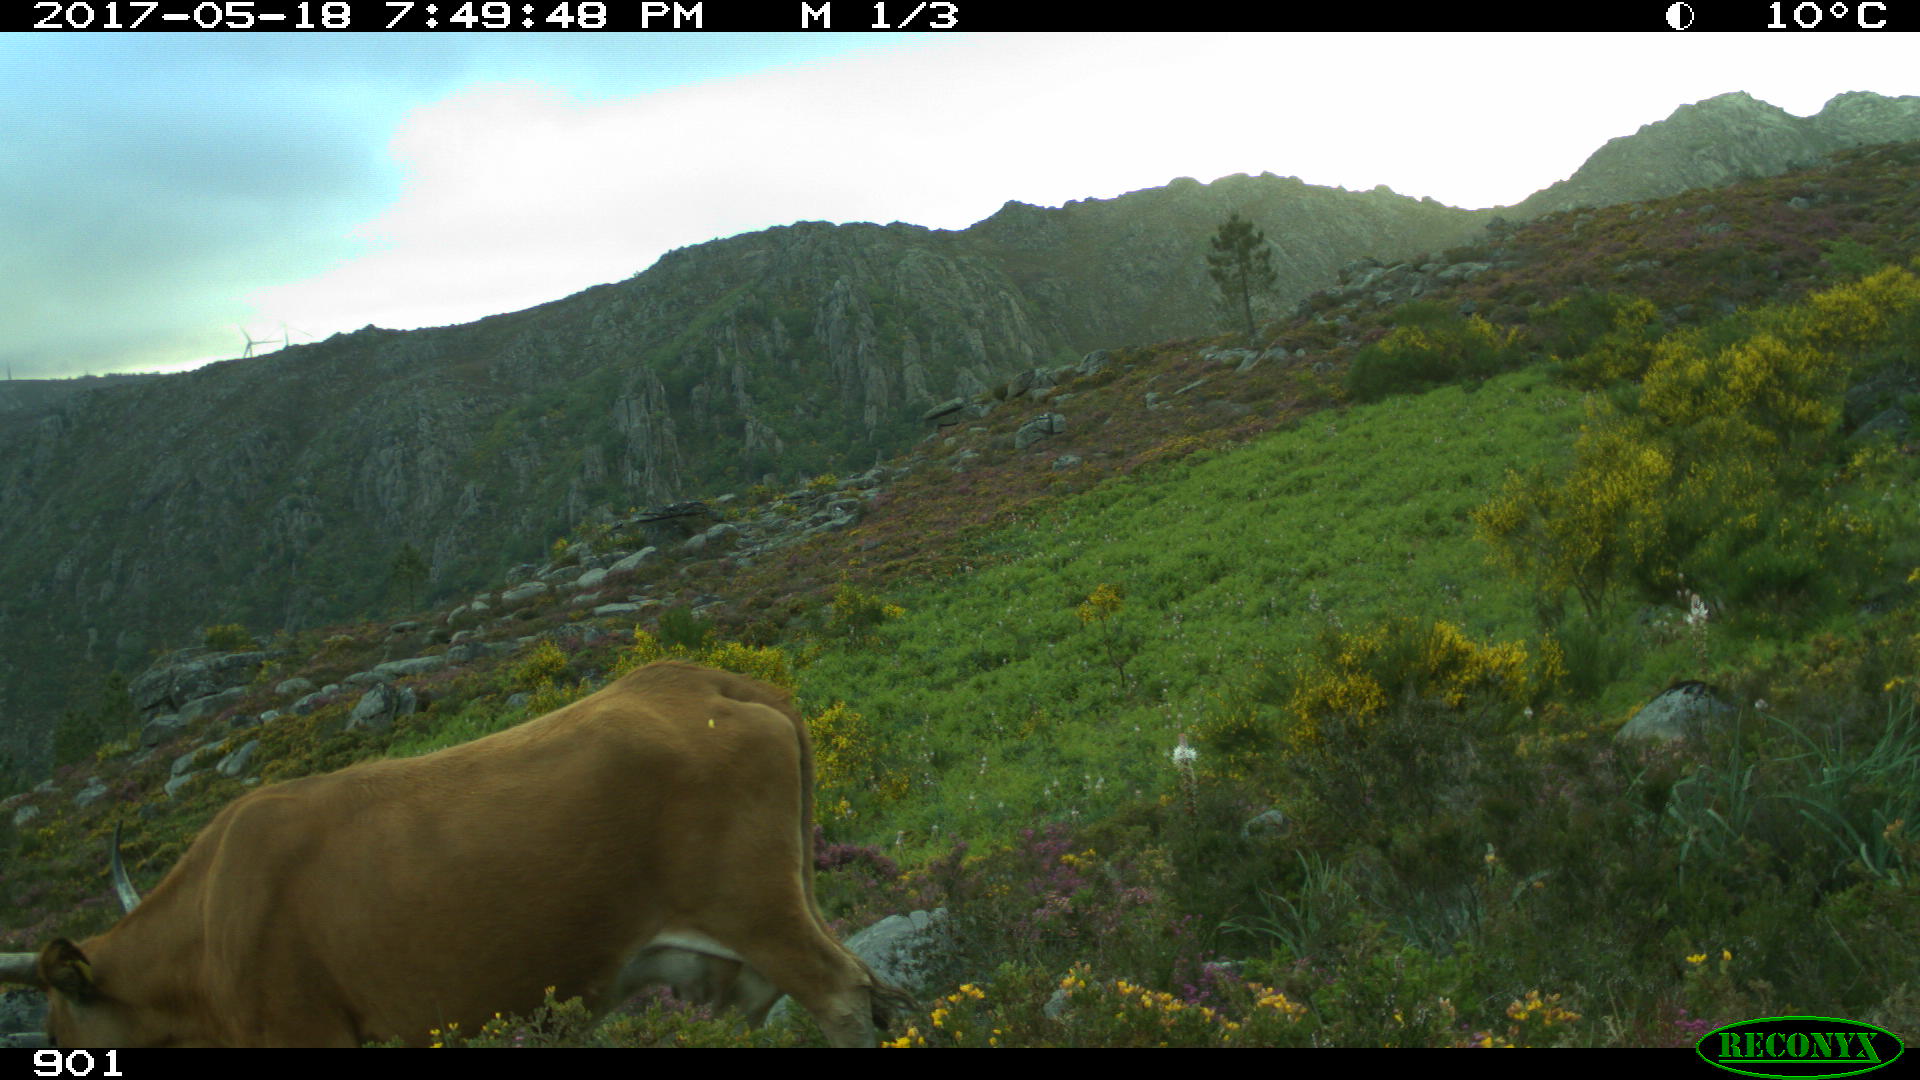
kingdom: Animalia
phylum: Chordata
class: Mammalia
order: Artiodactyla
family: Bovidae
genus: Bos
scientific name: Bos taurus
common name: Domesticated cattle
